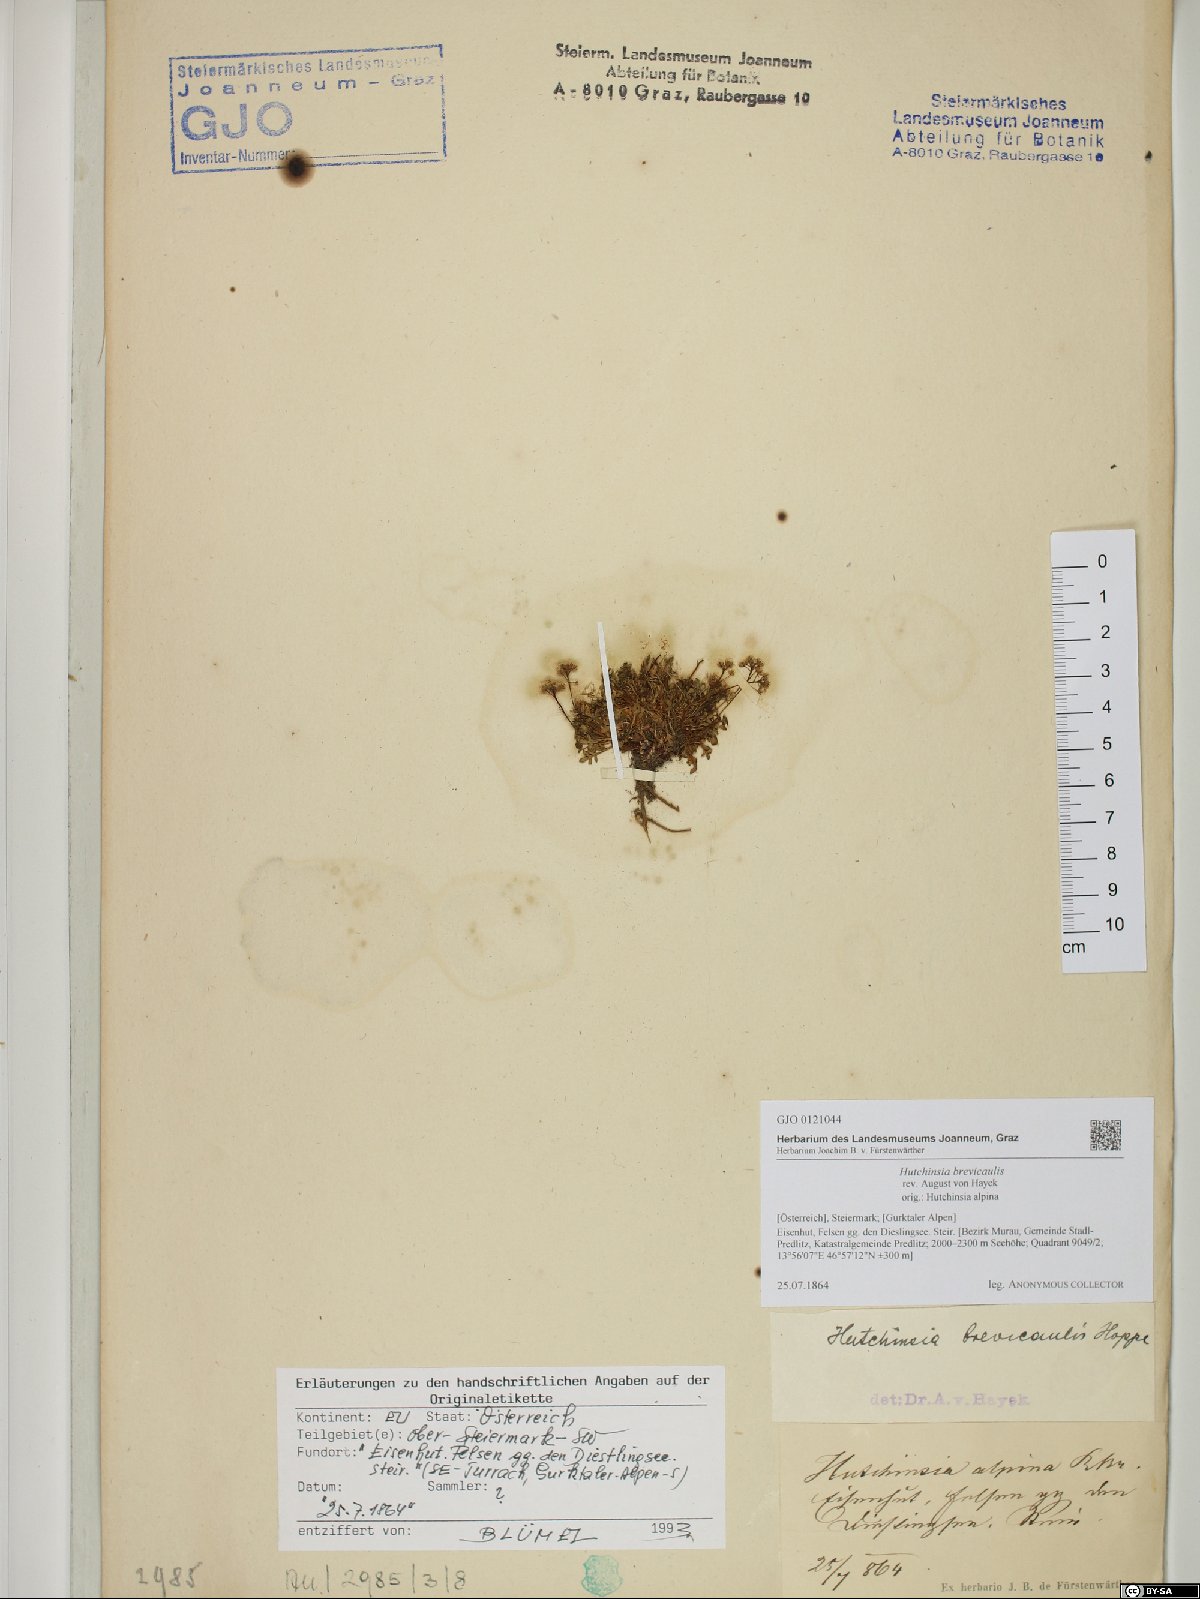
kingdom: Plantae
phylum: Tracheophyta
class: Magnoliopsida
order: Brassicales
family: Brassicaceae
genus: Hornungia
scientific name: Hornungia alpina
